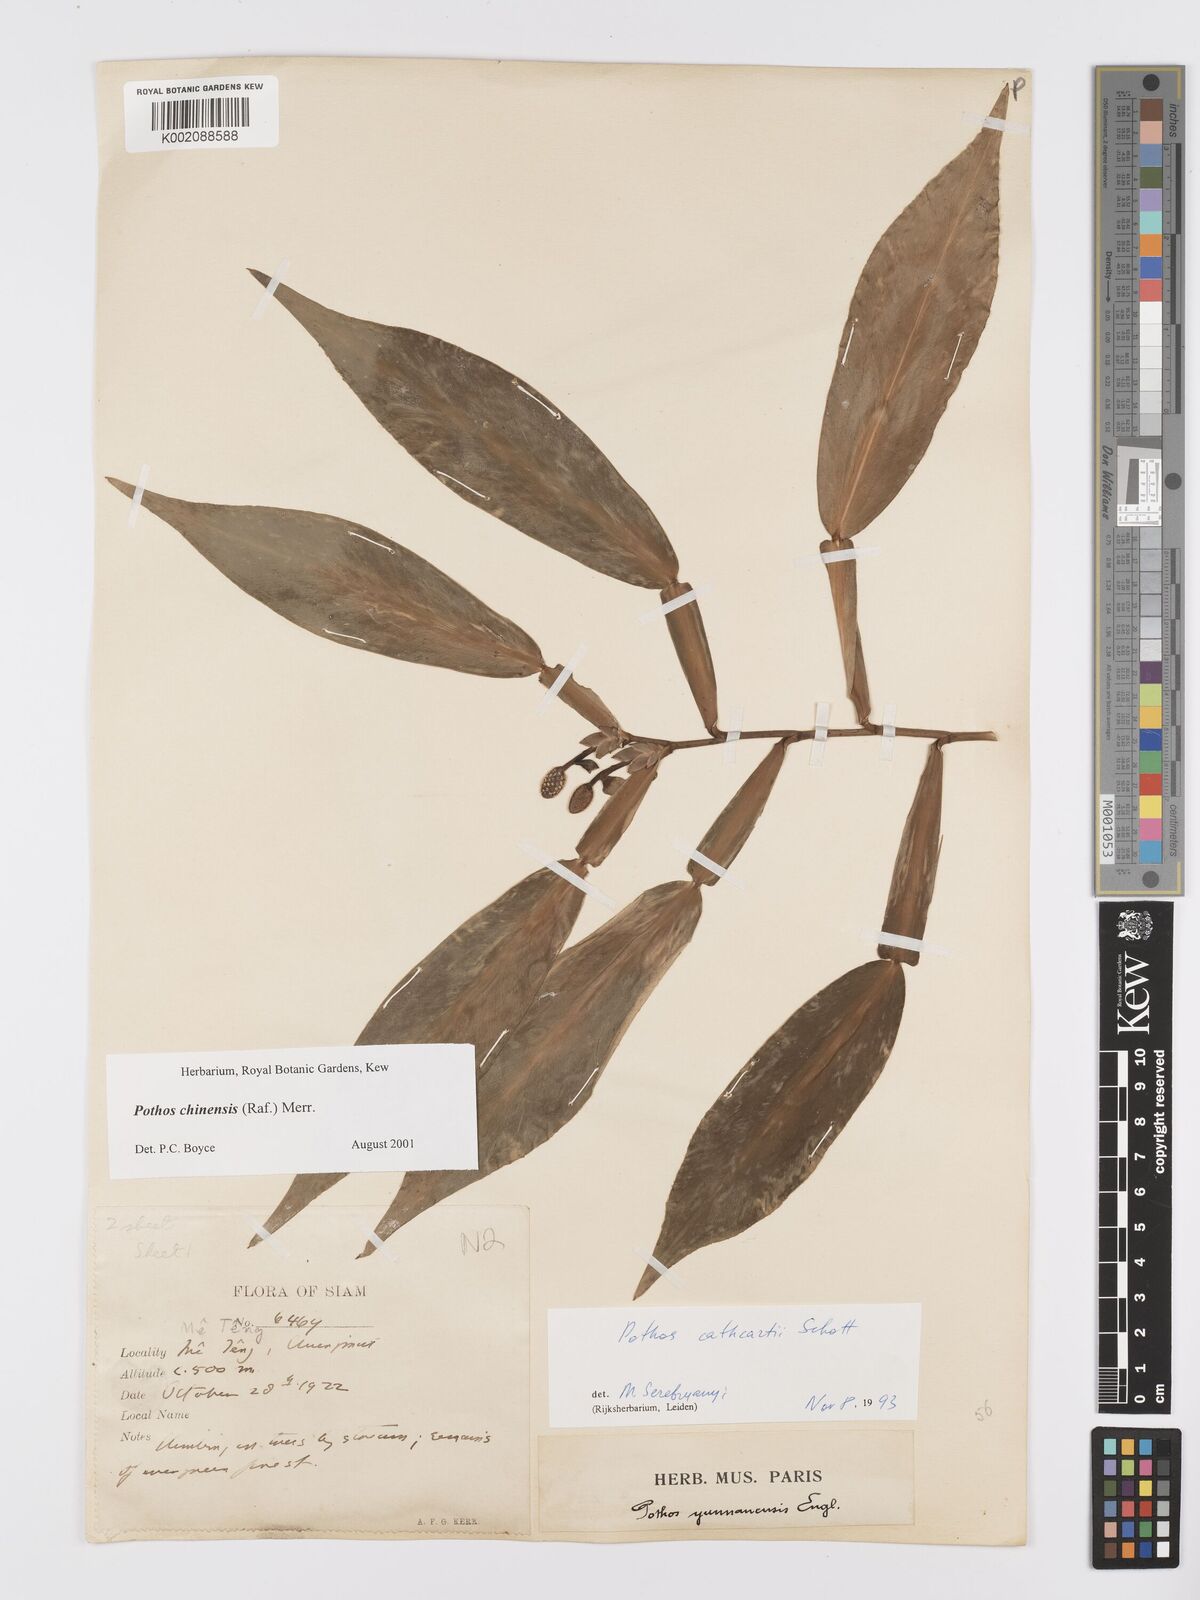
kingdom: Plantae
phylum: Tracheophyta
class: Liliopsida
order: Alismatales
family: Araceae
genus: Pothos
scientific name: Pothos chinensis
